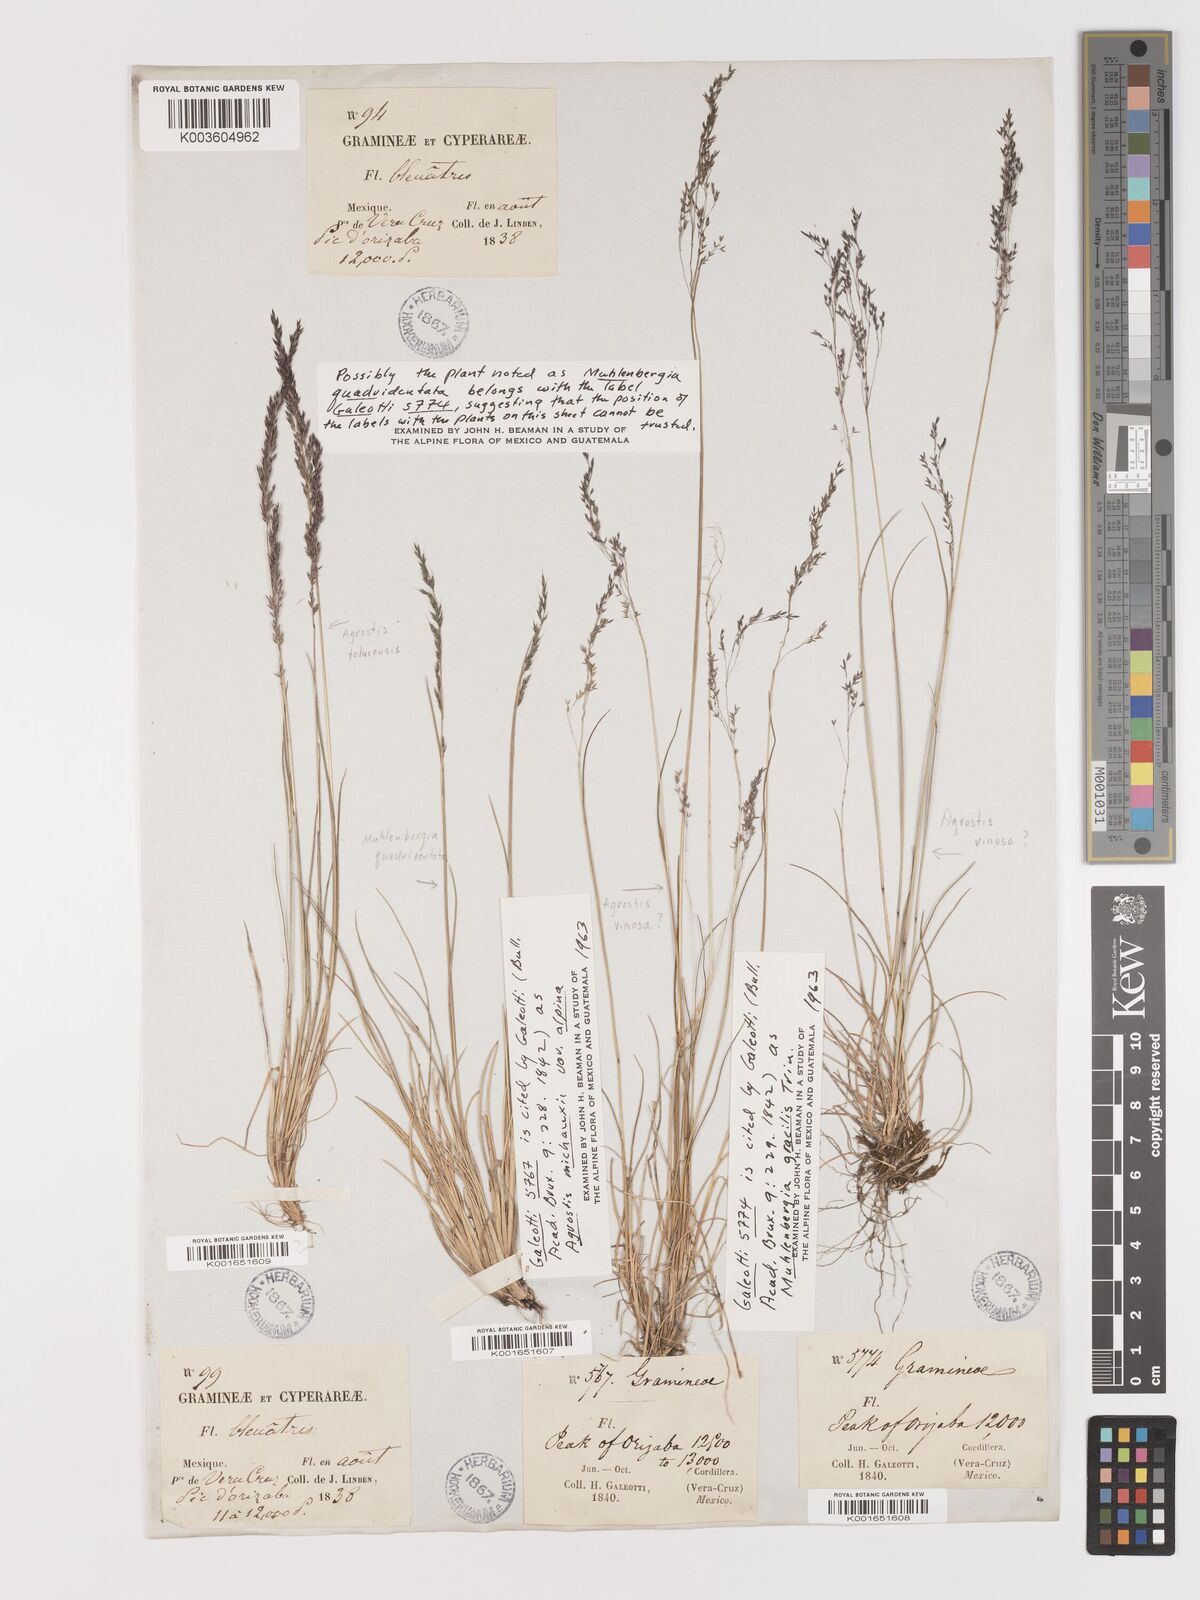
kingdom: Plantae
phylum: Tracheophyta
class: Liliopsida
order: Poales
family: Poaceae
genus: Agrostis
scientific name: Agrostis subpatens
